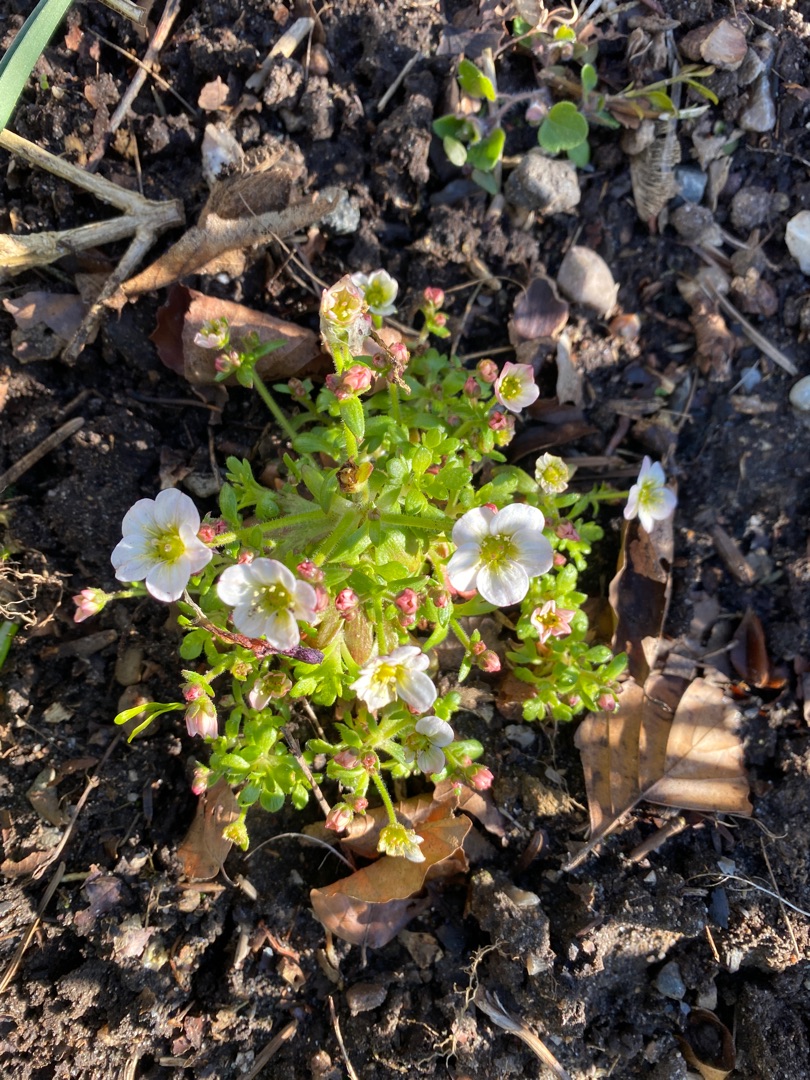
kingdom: Plantae
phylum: Tracheophyta
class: Magnoliopsida
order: Saxifragales
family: Saxifragaceae
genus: Saxifraga
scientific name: Saxifraga rosacea
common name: Gærde-stenbræk
